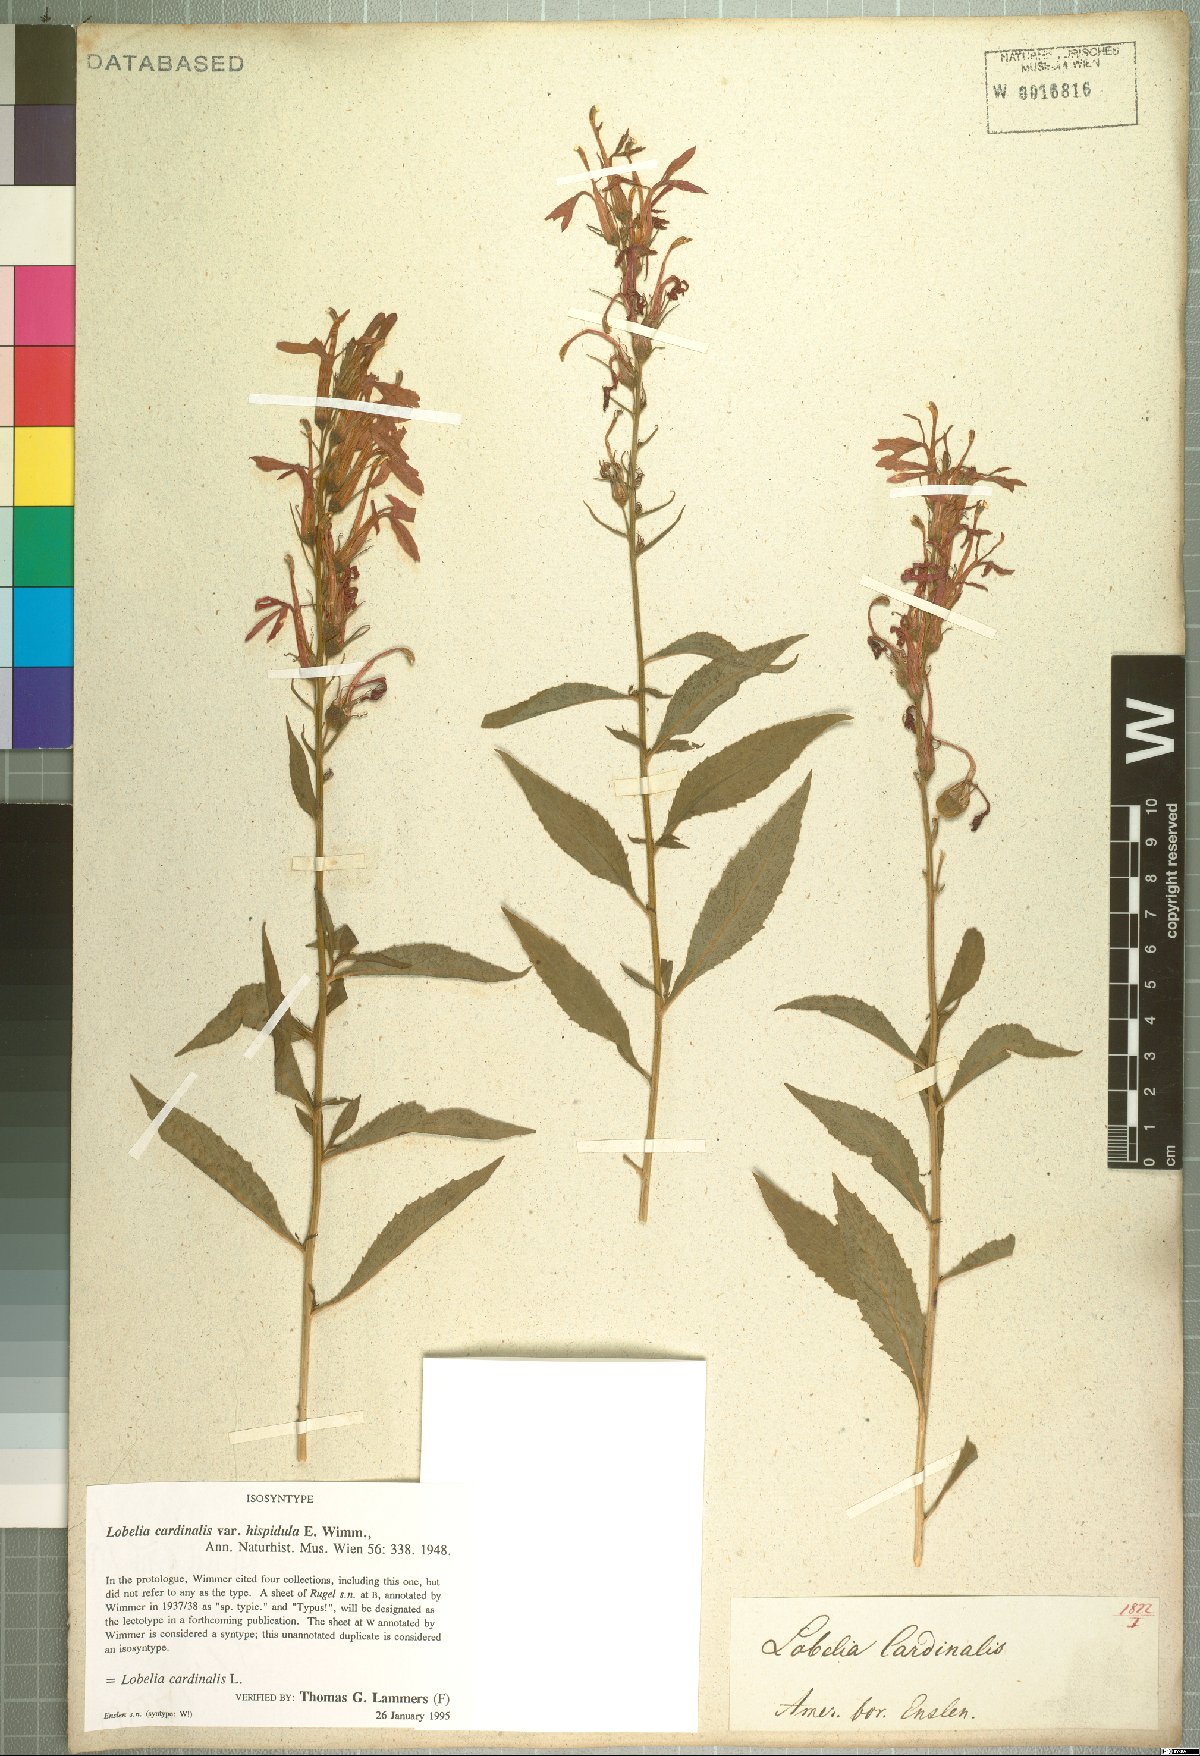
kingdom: Plantae
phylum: Tracheophyta
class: Magnoliopsida
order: Asterales
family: Campanulaceae
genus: Lobelia
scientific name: Lobelia cardinalis
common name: Cardinal flower
